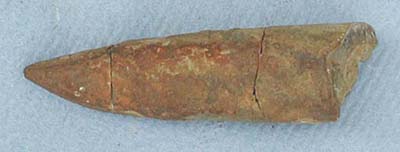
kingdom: Animalia
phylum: Mollusca
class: Cephalopoda
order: Belemnitida
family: Megateuthididae
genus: Acrocoelites
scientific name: Acrocoelites
